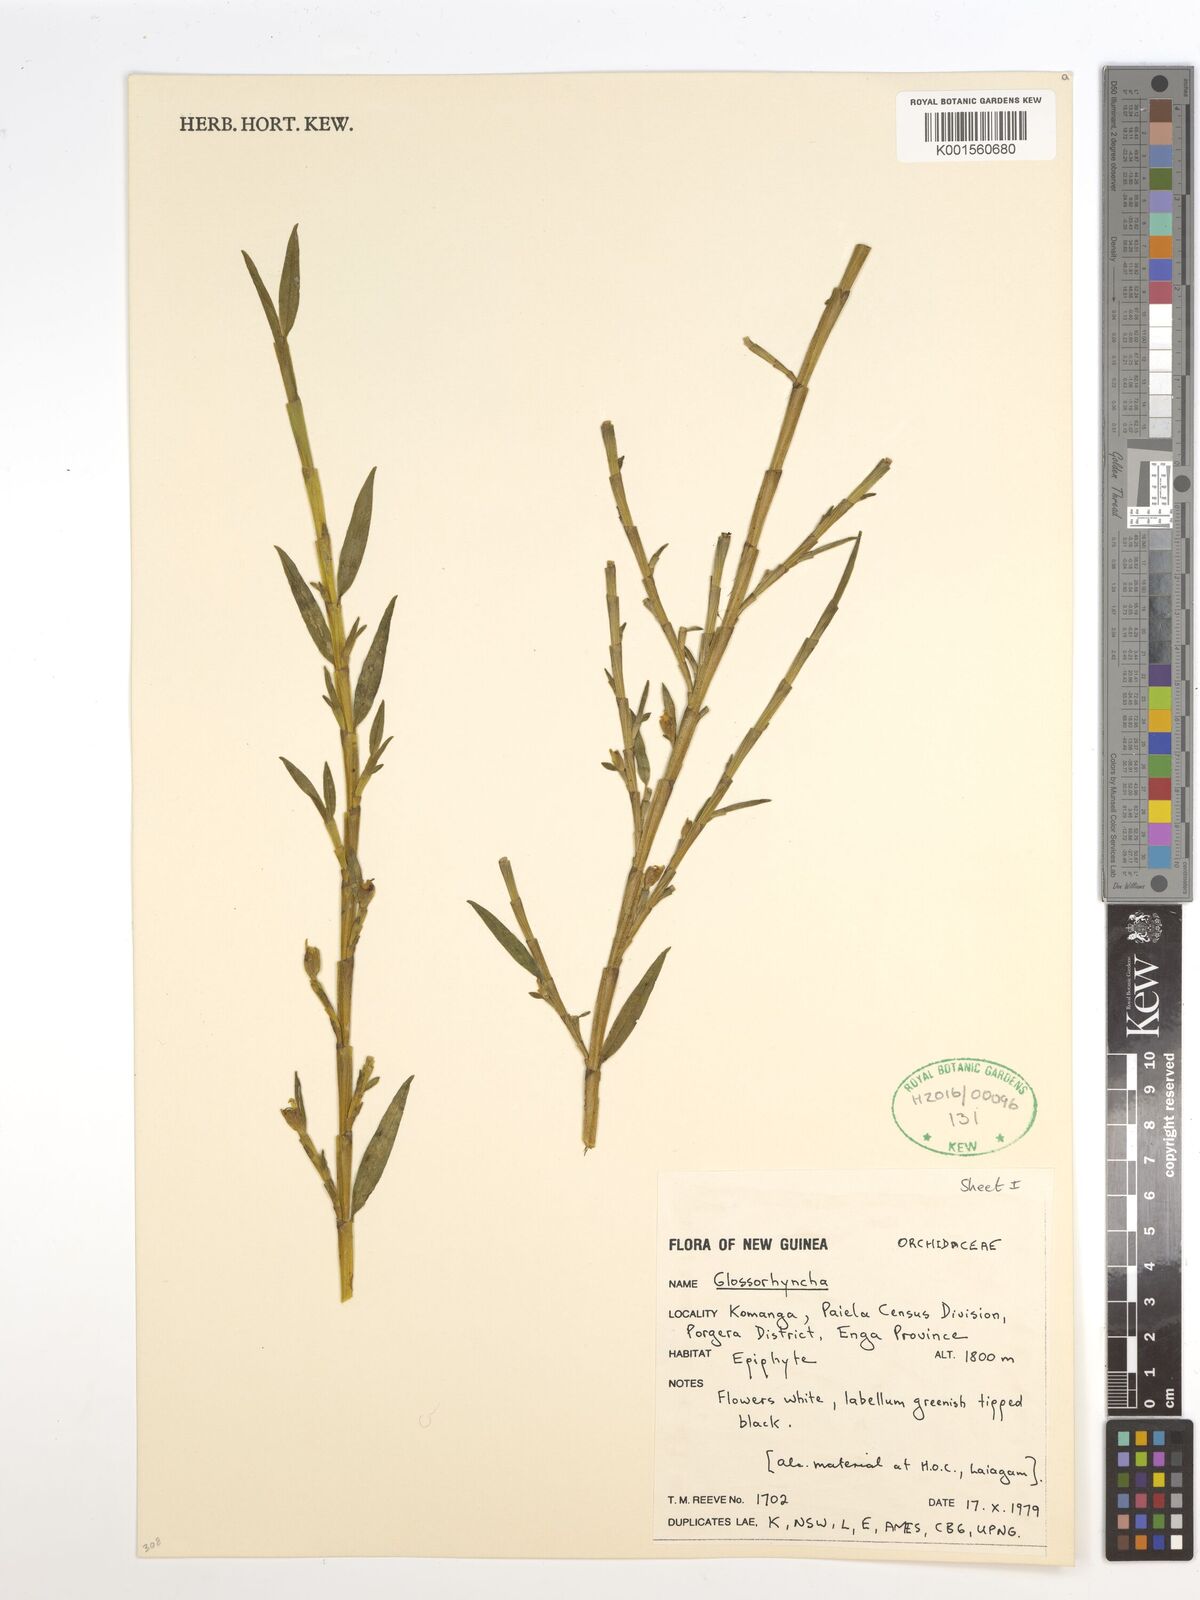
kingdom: Plantae
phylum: Tracheophyta
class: Liliopsida
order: Asparagales
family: Orchidaceae
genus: Glomera
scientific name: Glomera
